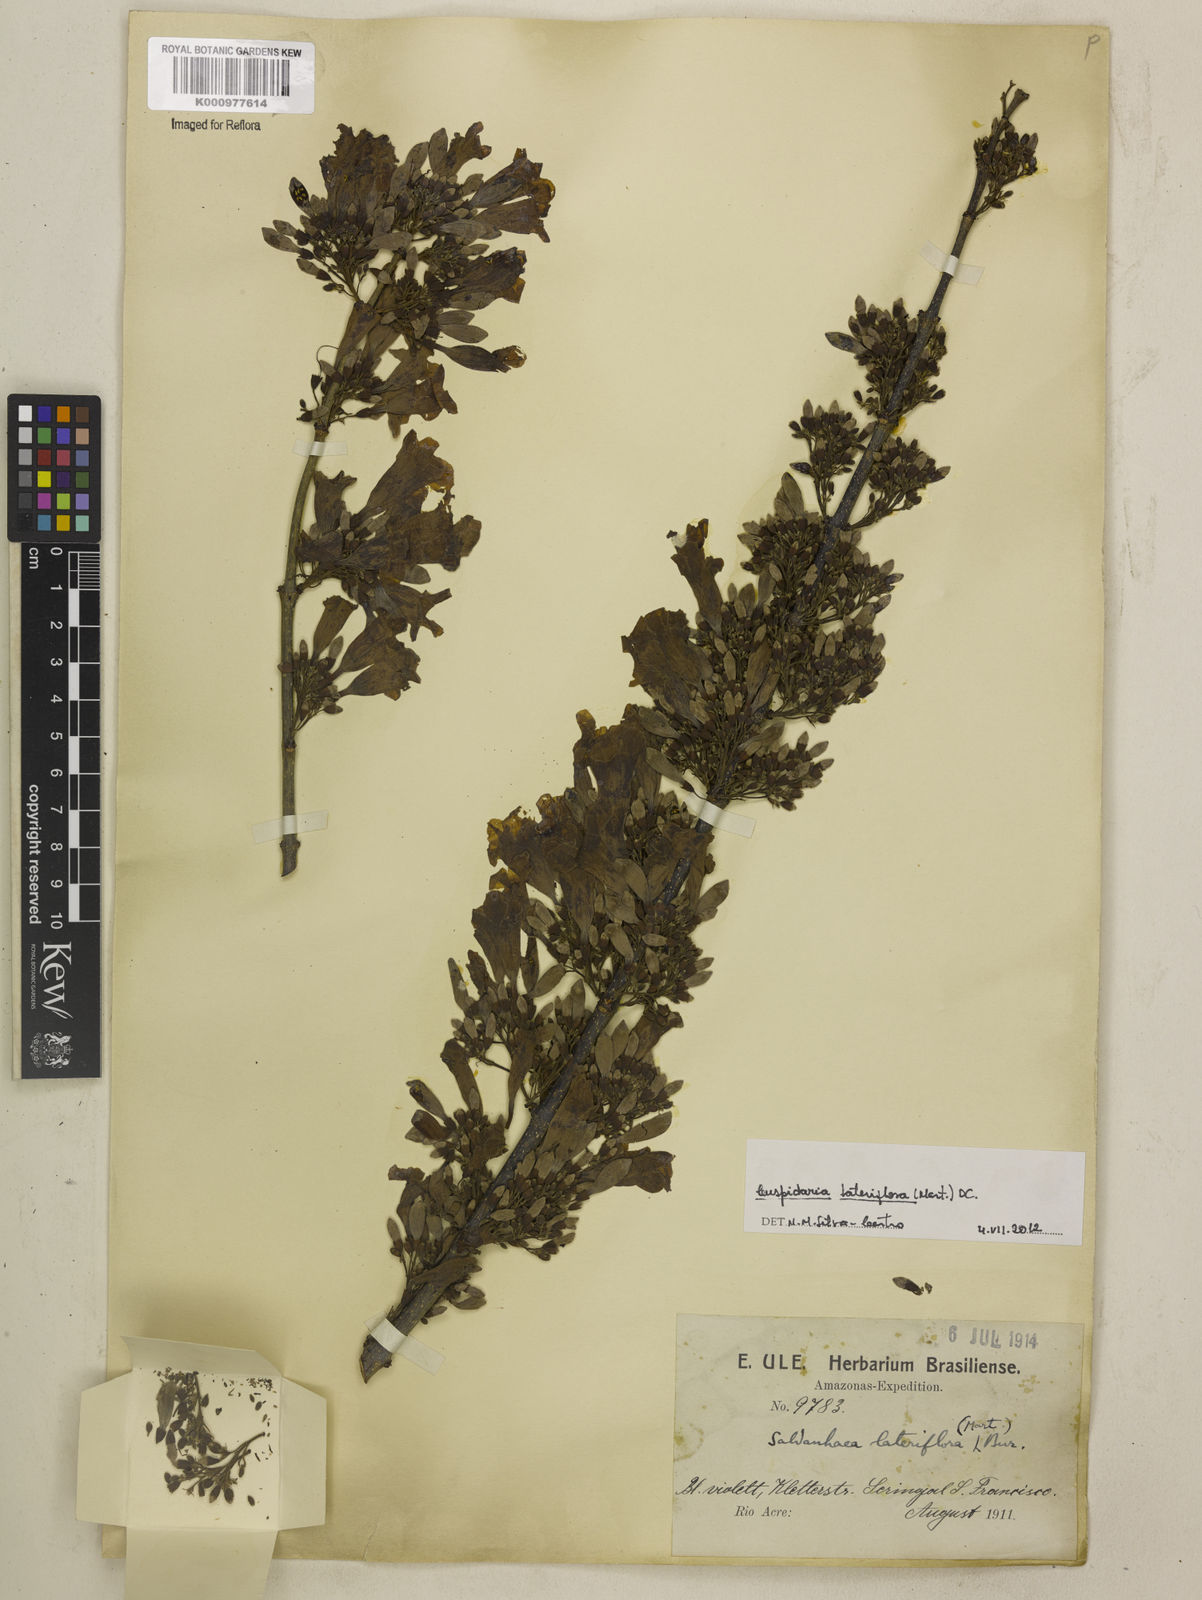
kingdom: Plantae
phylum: Tracheophyta
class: Magnoliopsida
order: Lamiales
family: Bignoniaceae
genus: Cuspidaria
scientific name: Cuspidaria lateriflora
